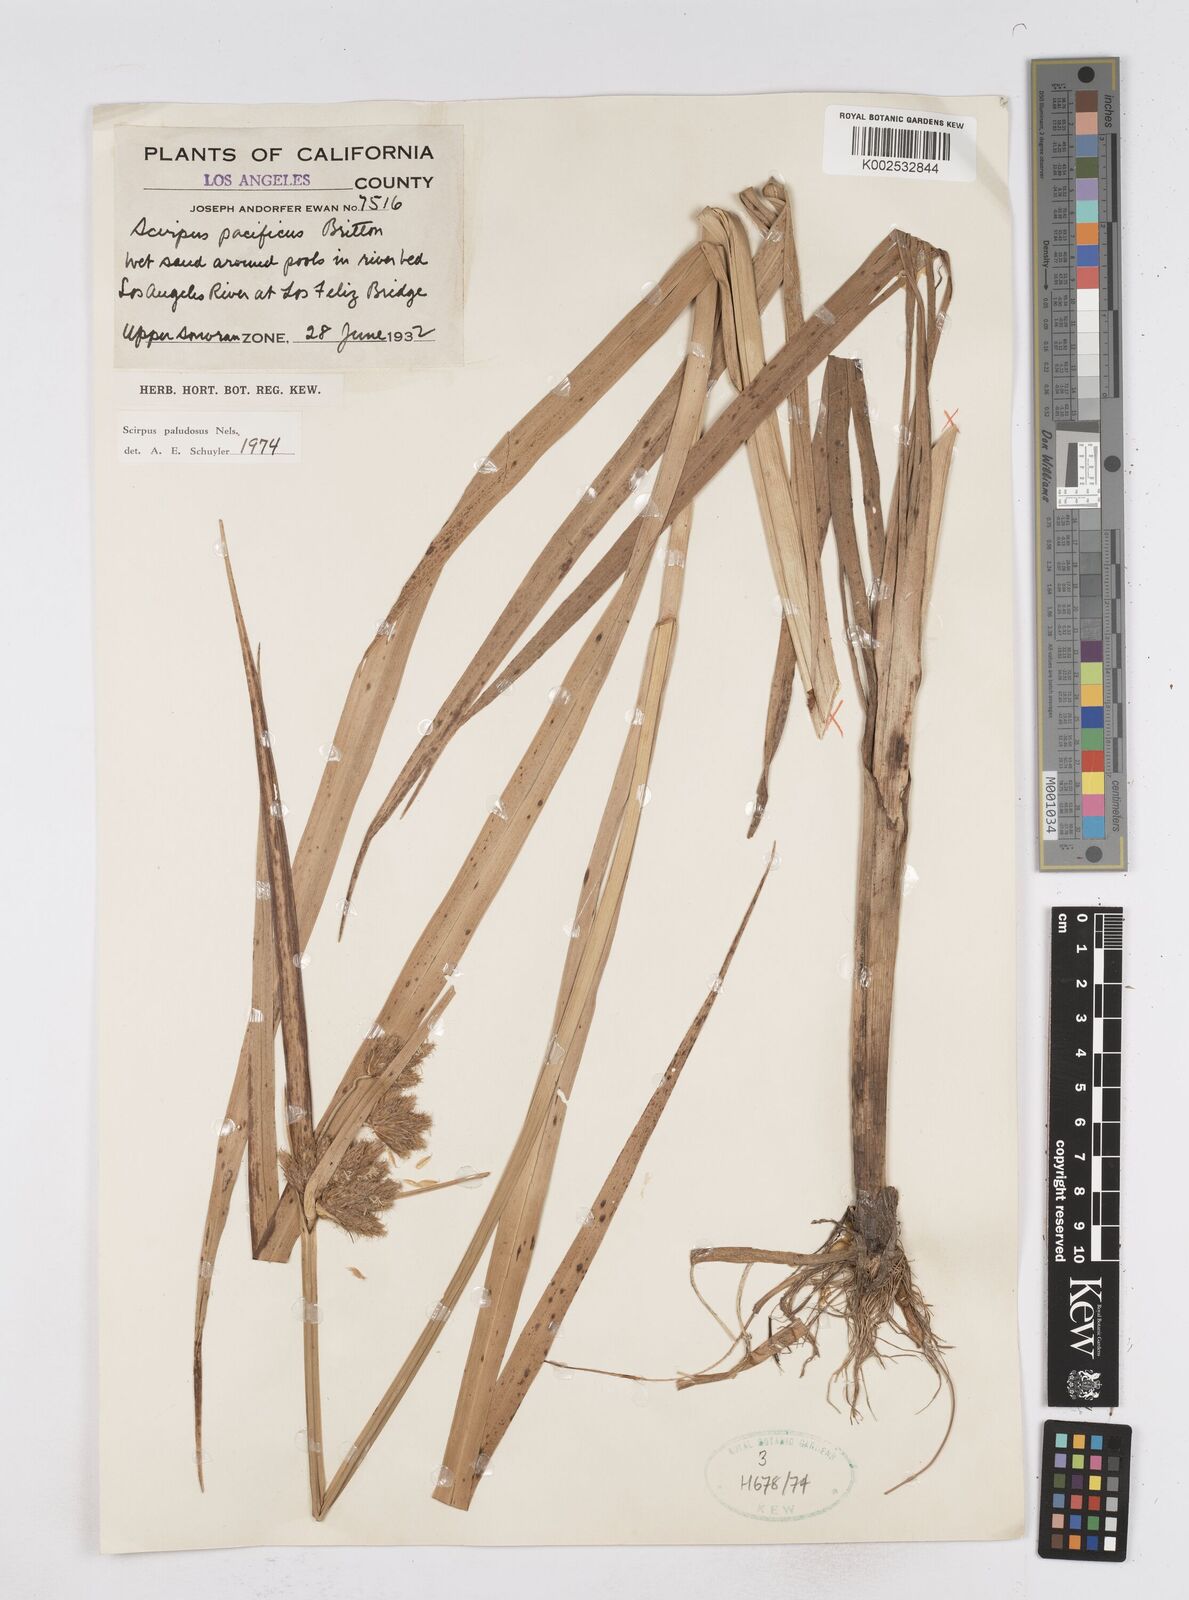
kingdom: Plantae
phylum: Tracheophyta
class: Liliopsida
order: Poales
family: Cyperaceae
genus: Bolboschoenus
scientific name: Bolboschoenus maritimus
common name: Sea club-rush
